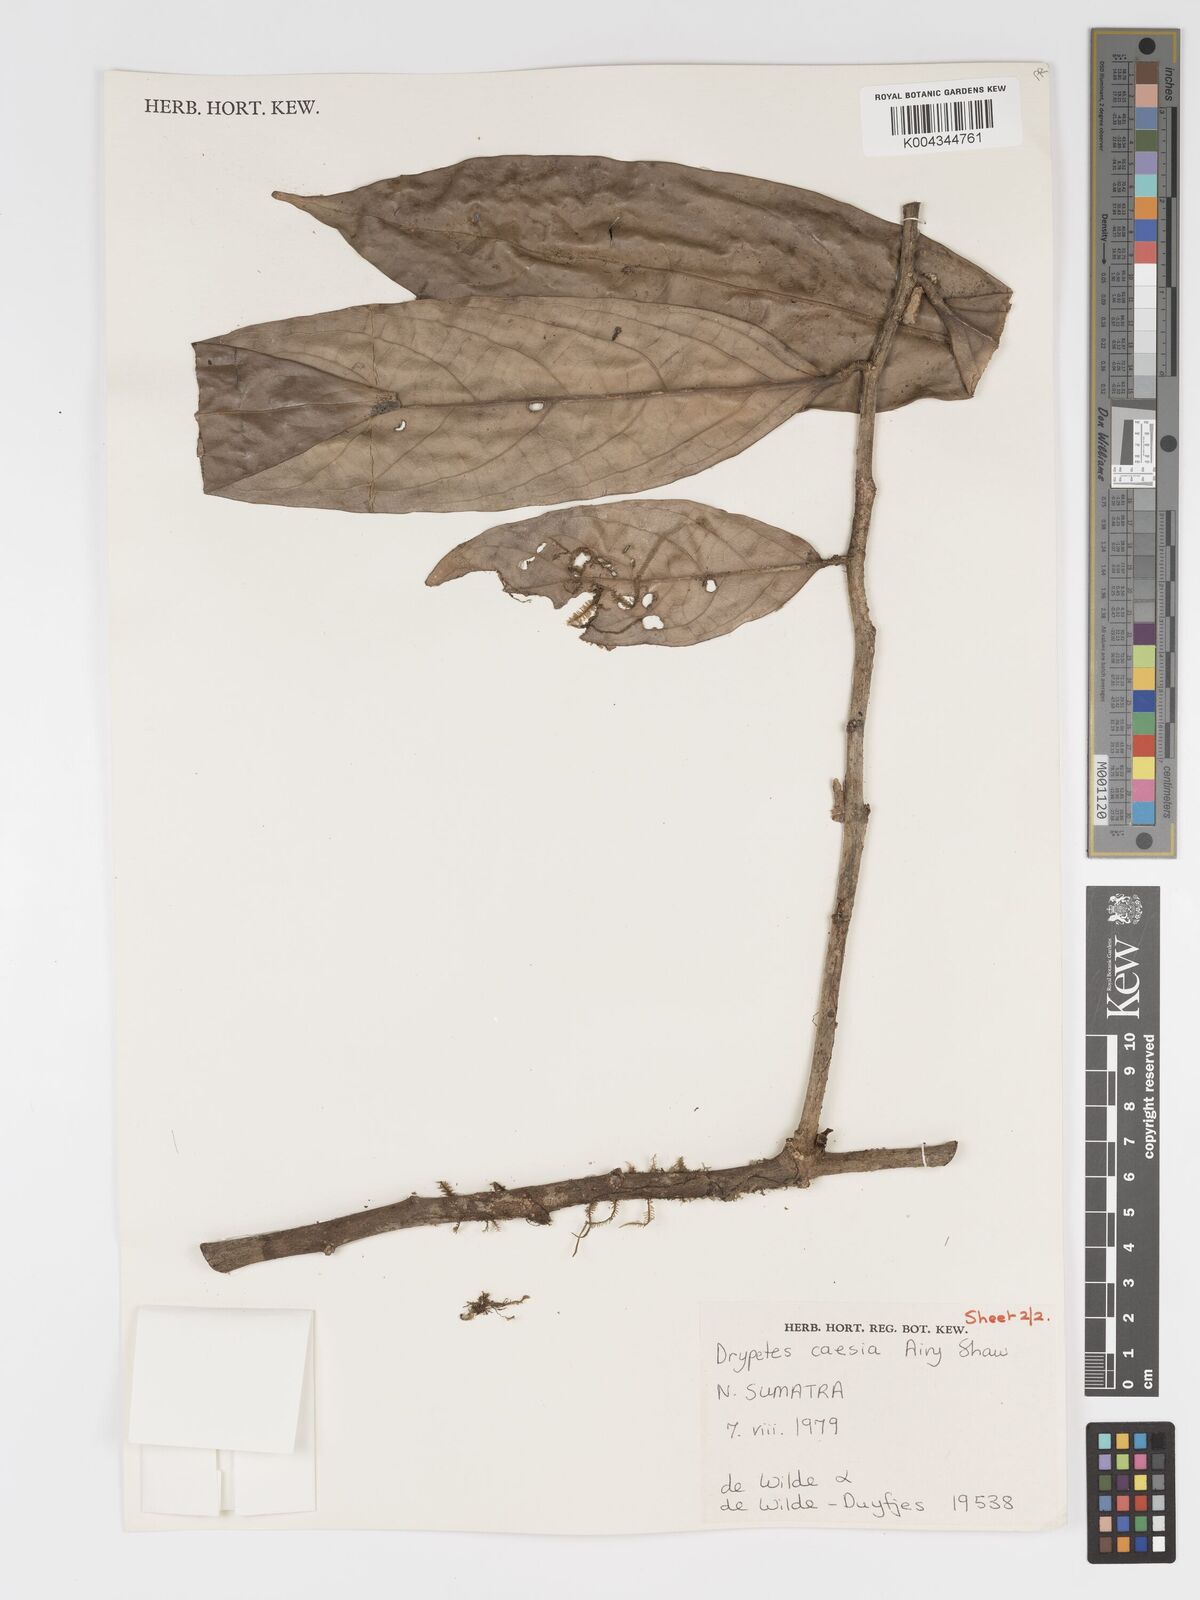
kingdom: Plantae
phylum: Tracheophyta
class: Magnoliopsida
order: Malpighiales
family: Putranjivaceae
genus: Drypetes
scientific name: Drypetes caesia
